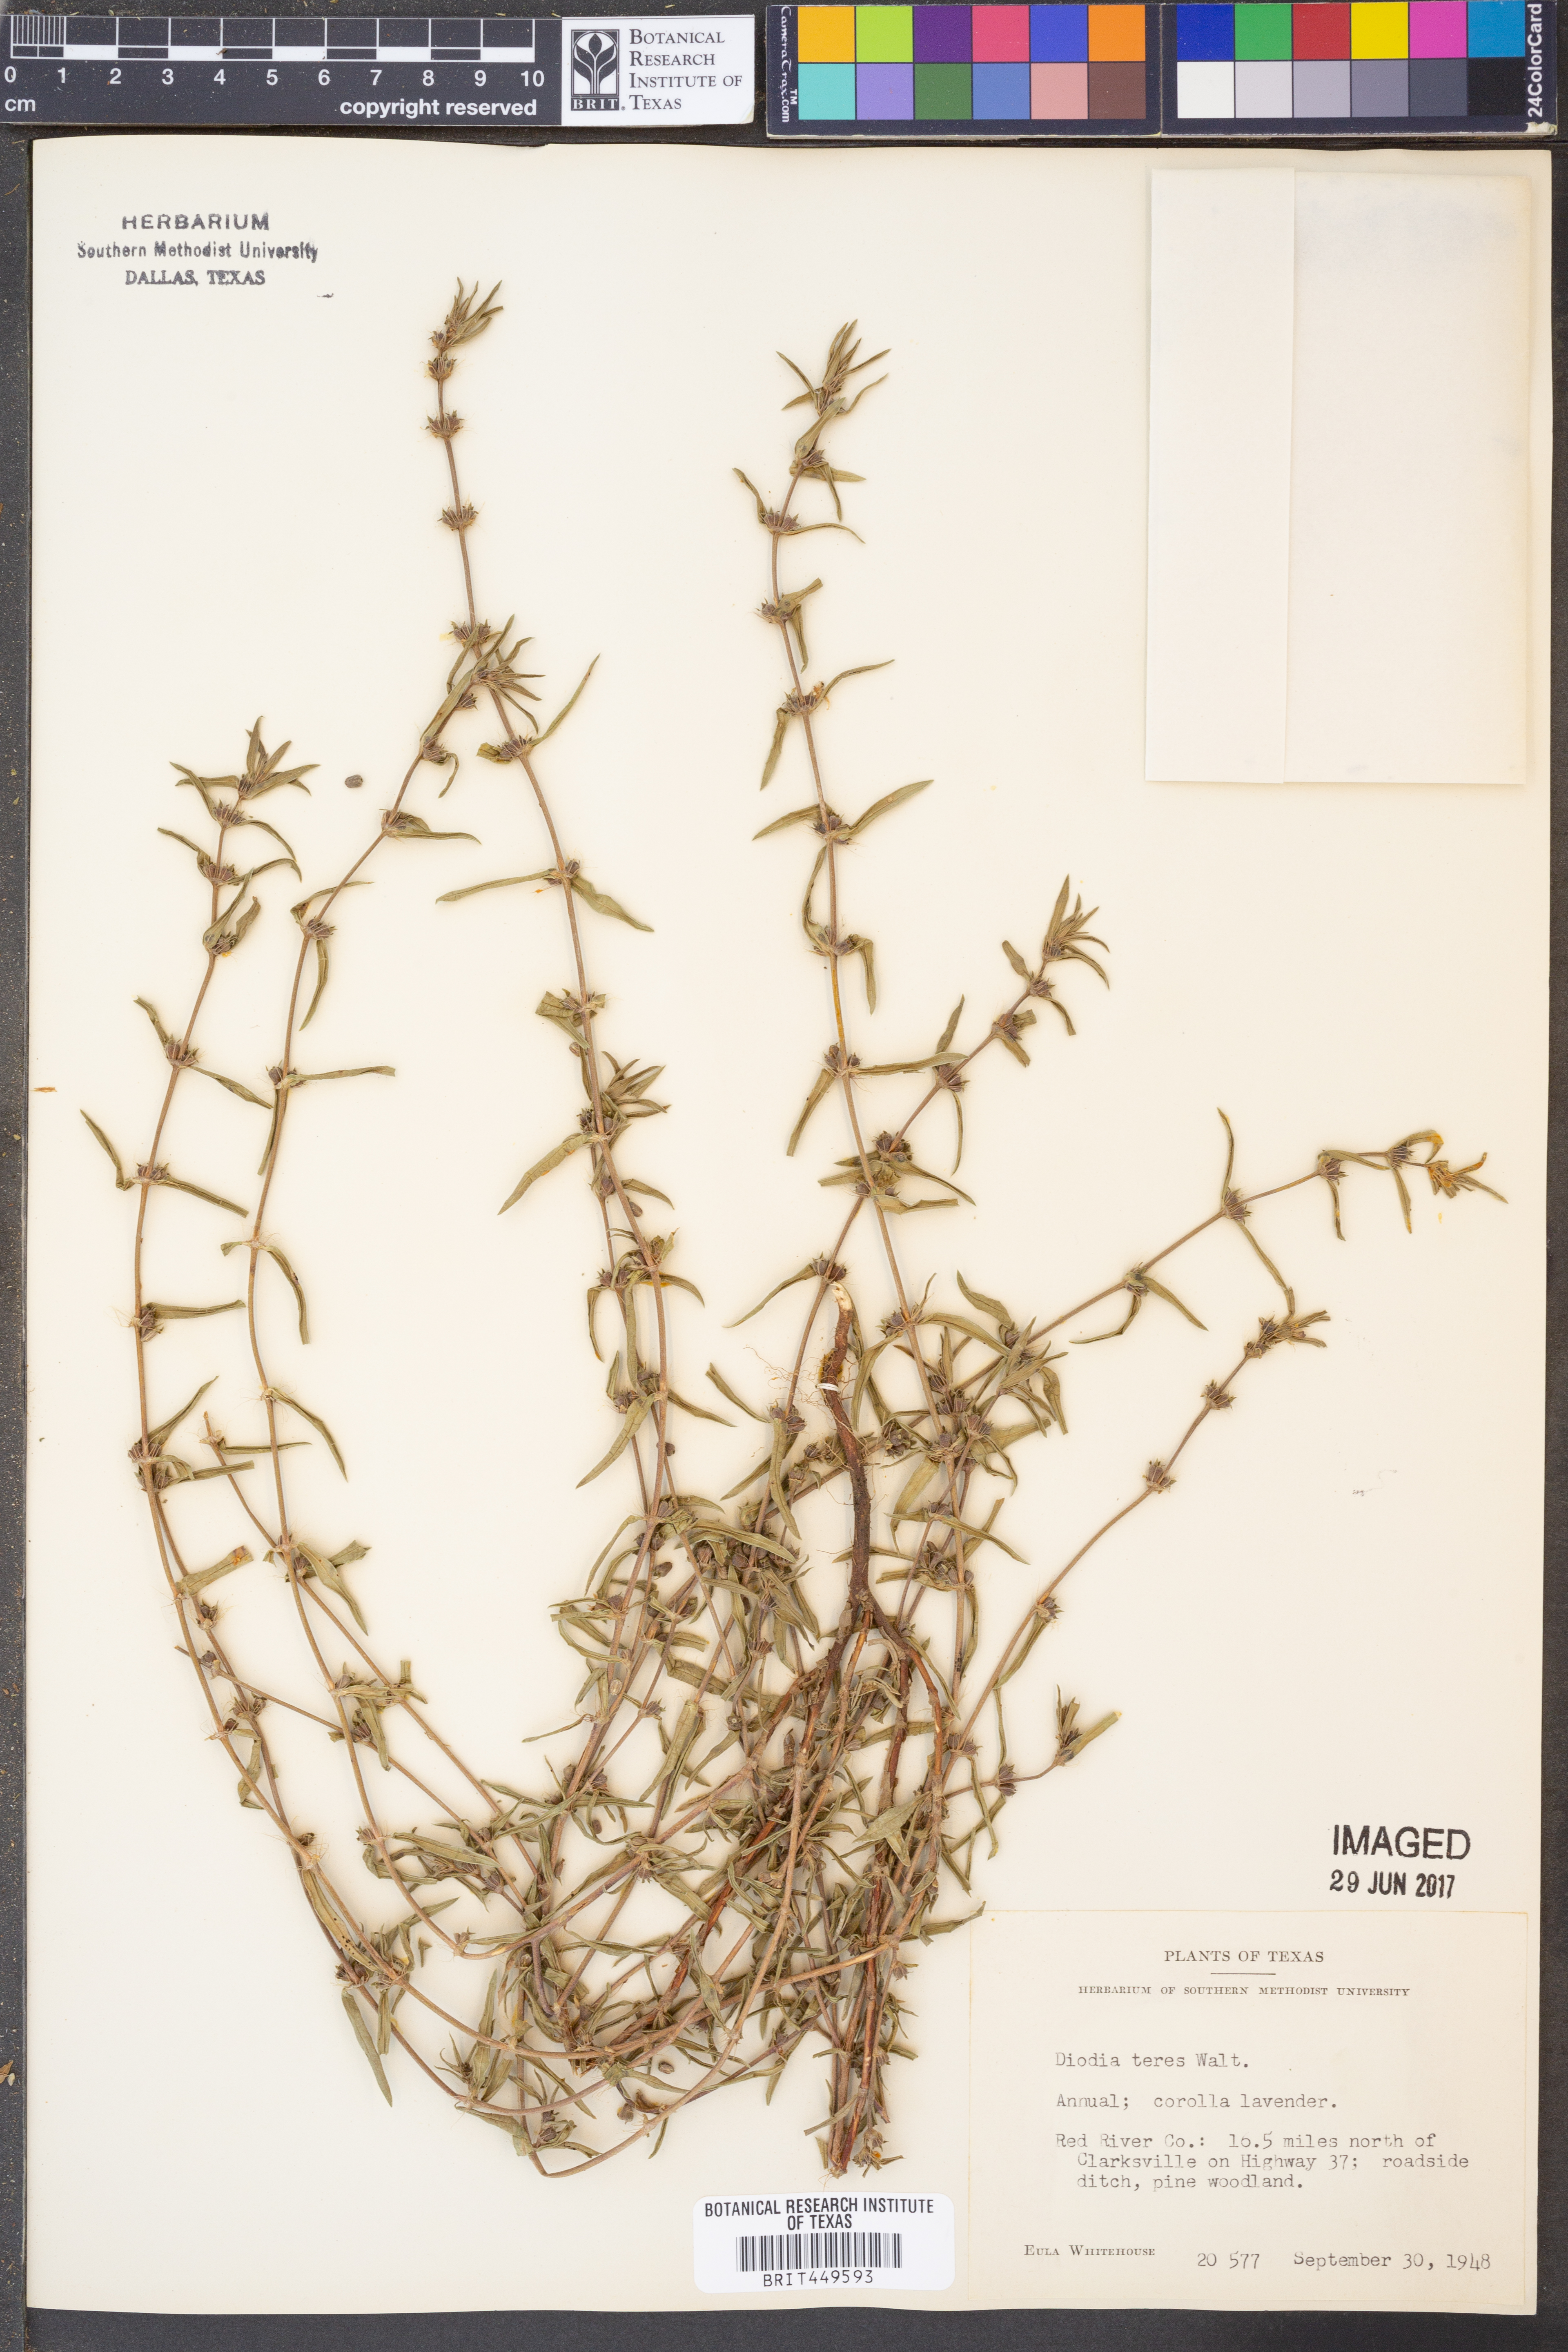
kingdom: Plantae
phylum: Tracheophyta
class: Magnoliopsida
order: Gentianales
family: Rubiaceae
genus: Hexasepalum
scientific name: Hexasepalum teres
